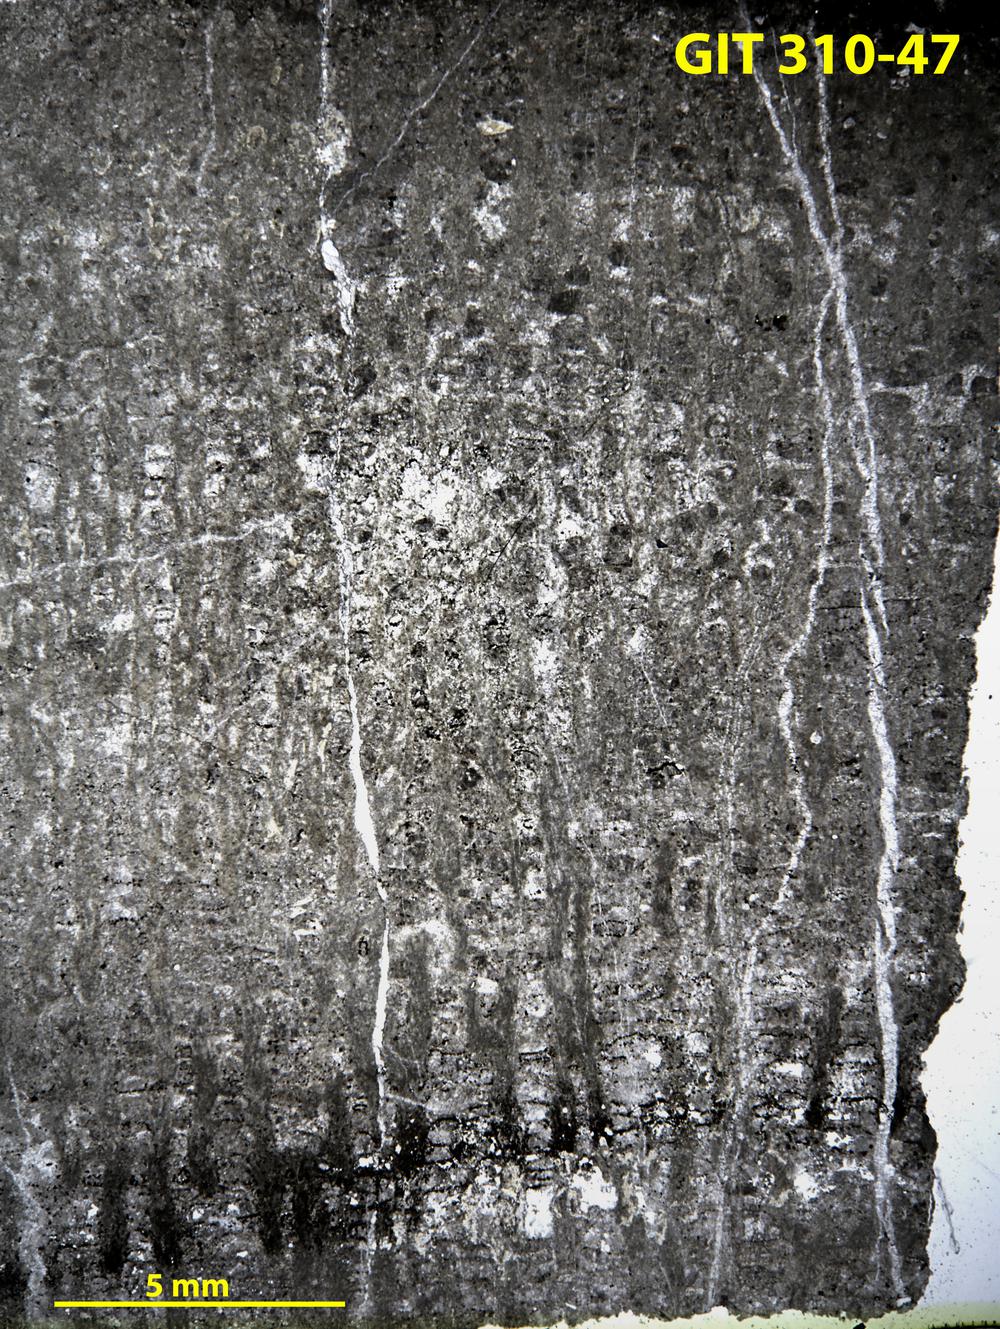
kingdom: Animalia
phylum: Porifera
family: Labechiidae
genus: Labechiella
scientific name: Labechiella
